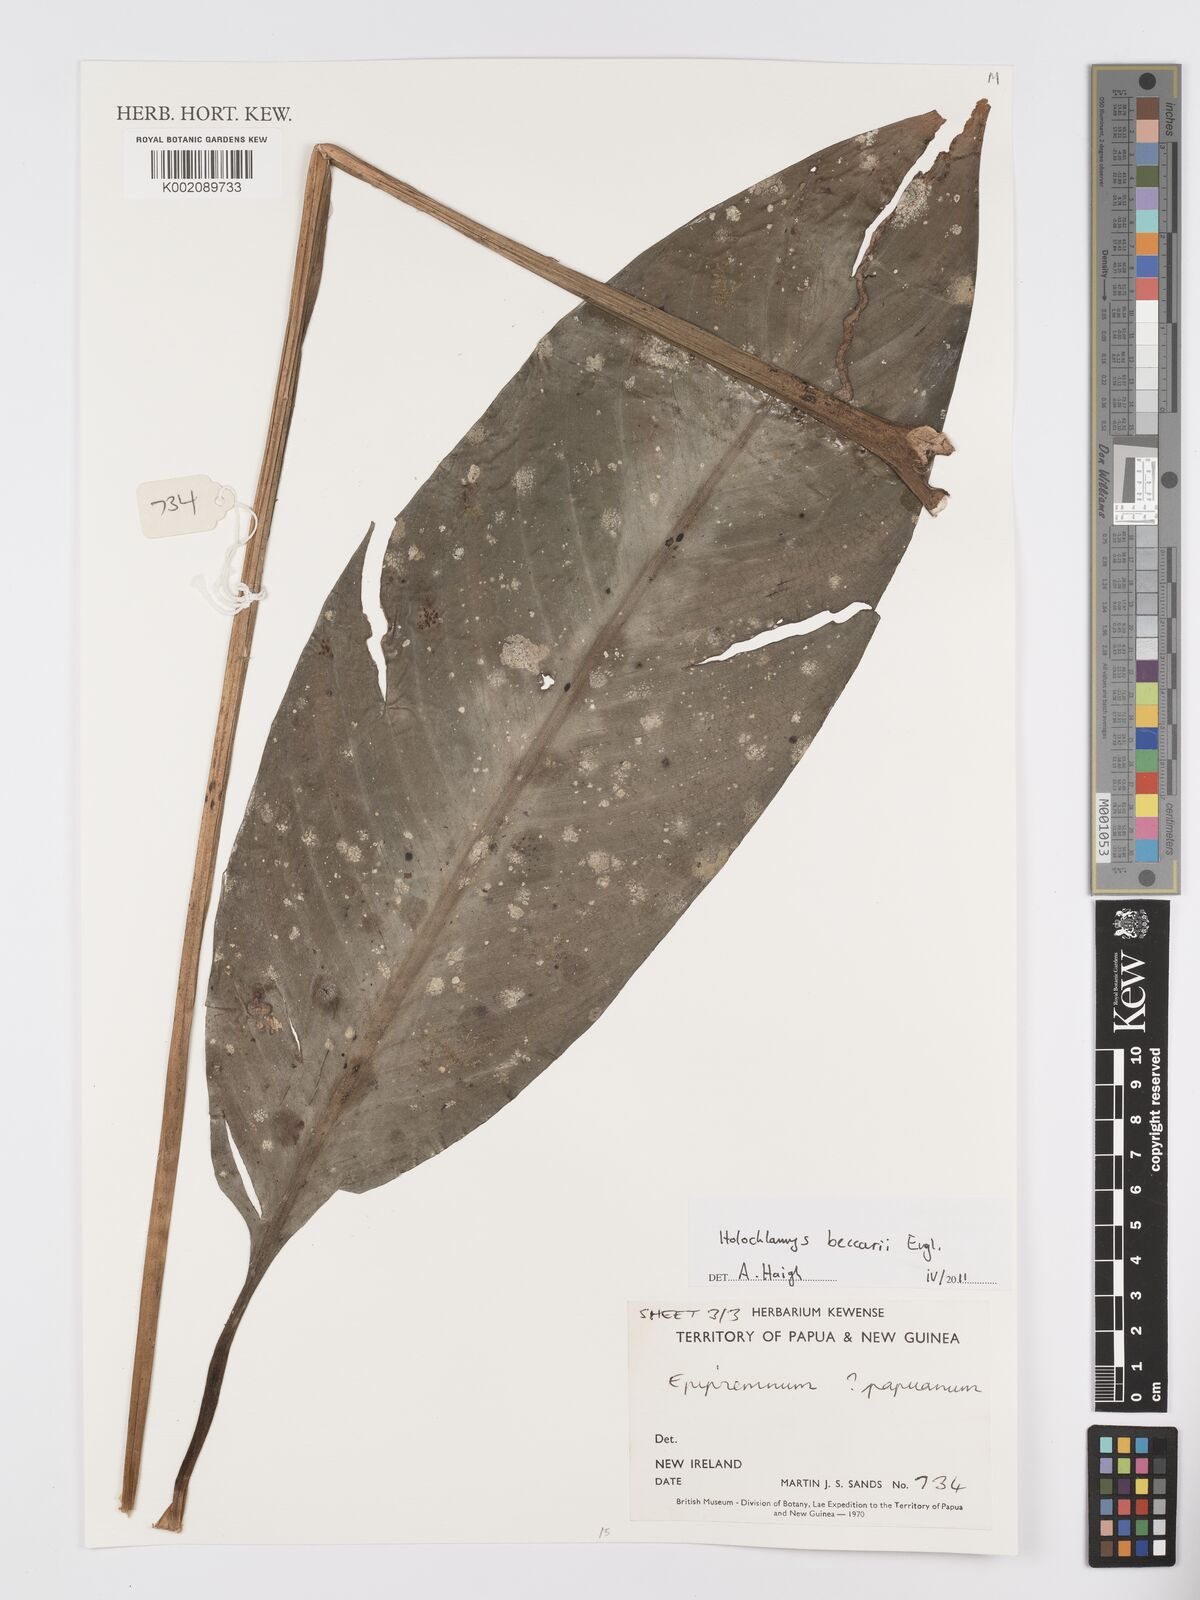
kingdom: Plantae
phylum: Tracheophyta
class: Liliopsida
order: Alismatales
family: Araceae
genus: Holochlamys
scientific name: Holochlamys beccarii
